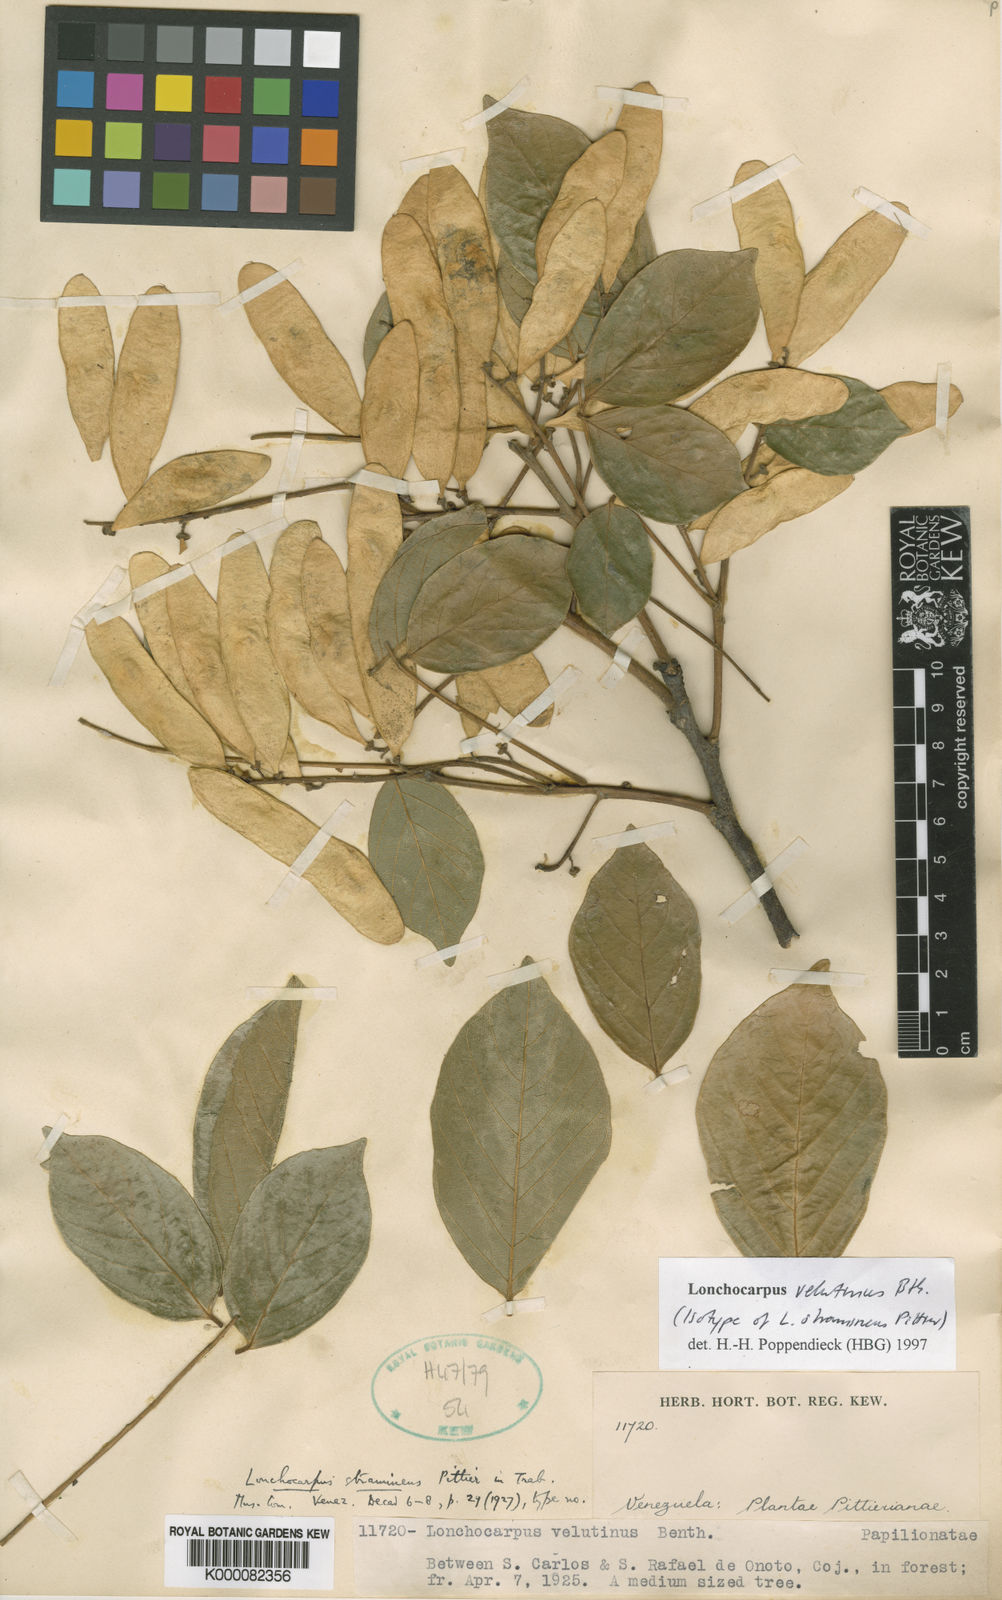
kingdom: Plantae
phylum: Tracheophyta
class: Magnoliopsida
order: Fabales
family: Fabaceae
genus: Lonchocarpus
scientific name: Lonchocarpus velutinus
